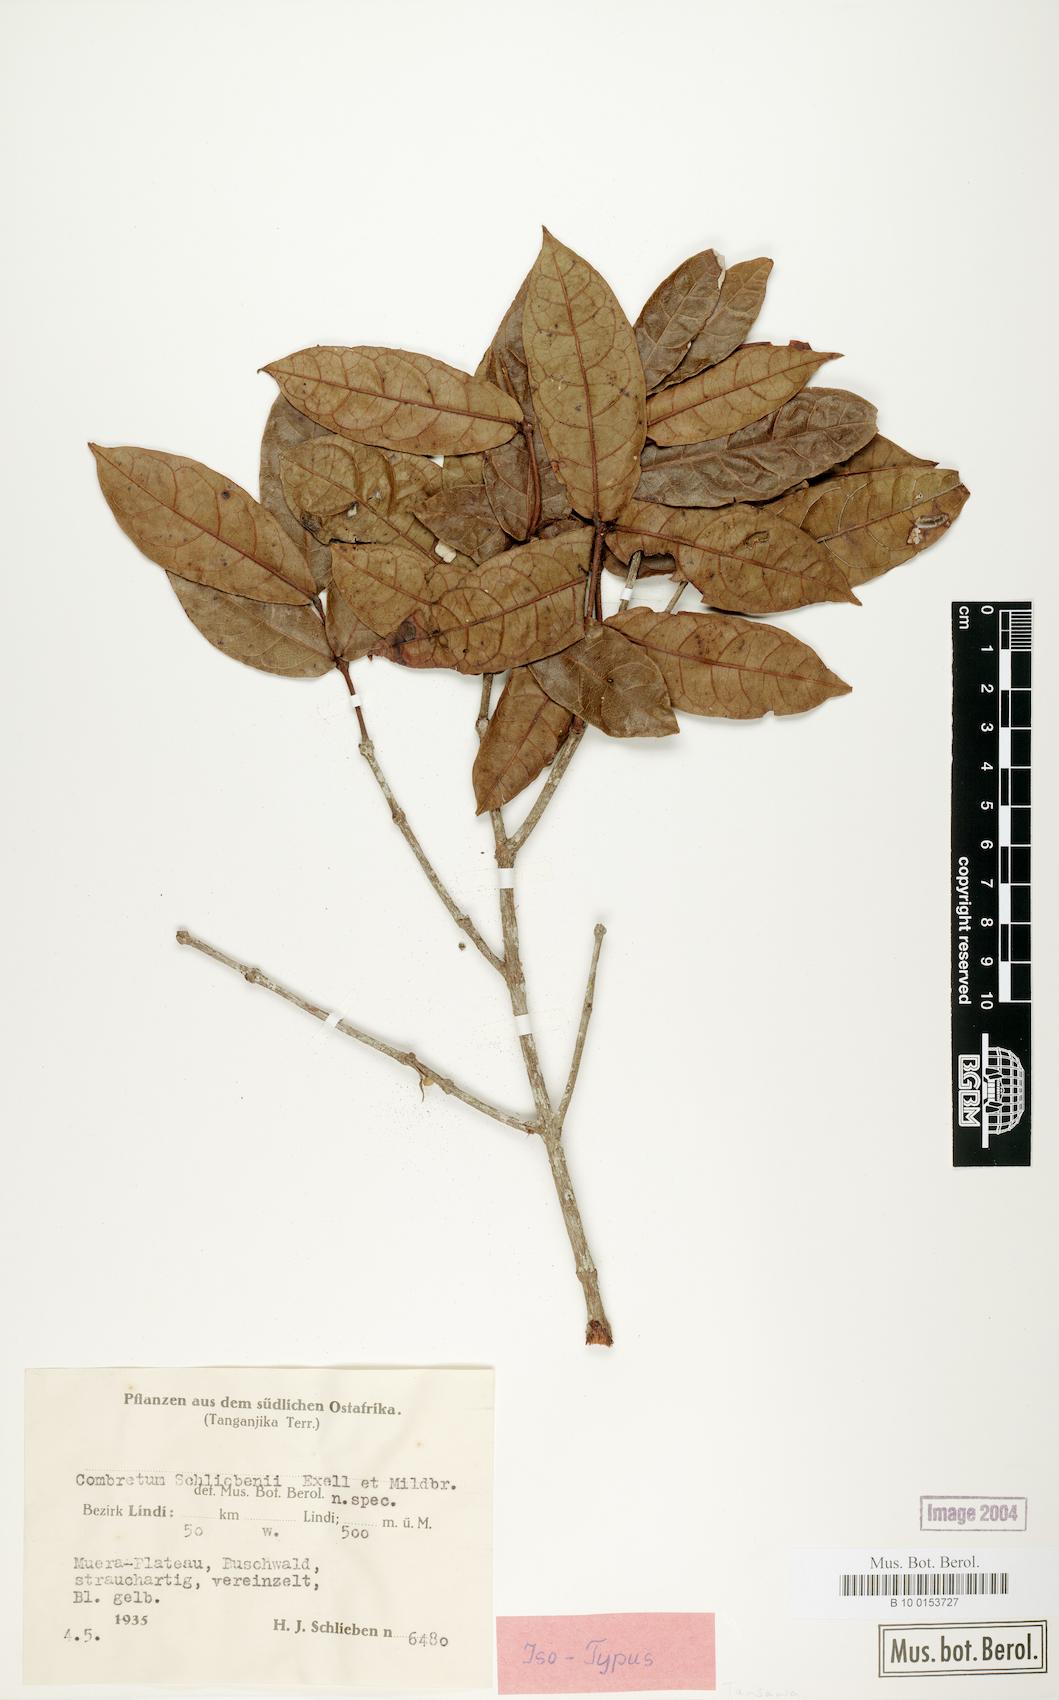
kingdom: Plantae
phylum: Tracheophyta
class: Magnoliopsida
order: Myrtales
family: Combretaceae
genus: Combretum
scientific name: Combretum iliairii
